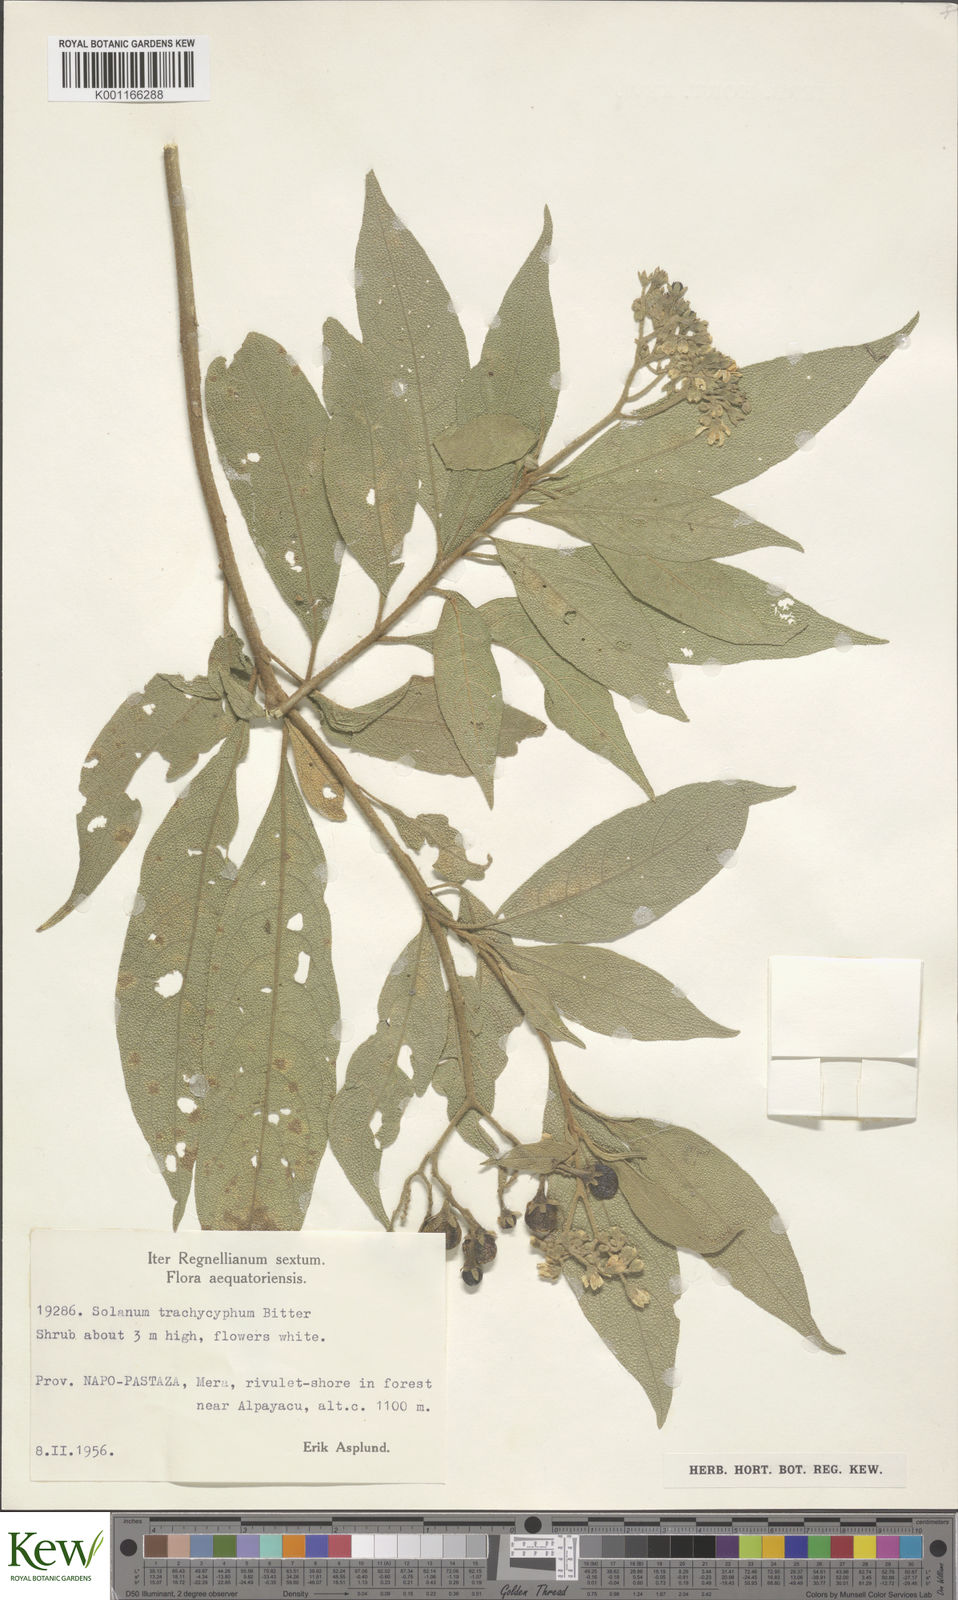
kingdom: Plantae
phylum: Tracheophyta
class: Magnoliopsida
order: Solanales
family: Solanaceae
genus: Solanum
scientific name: Solanum trachycyphum
